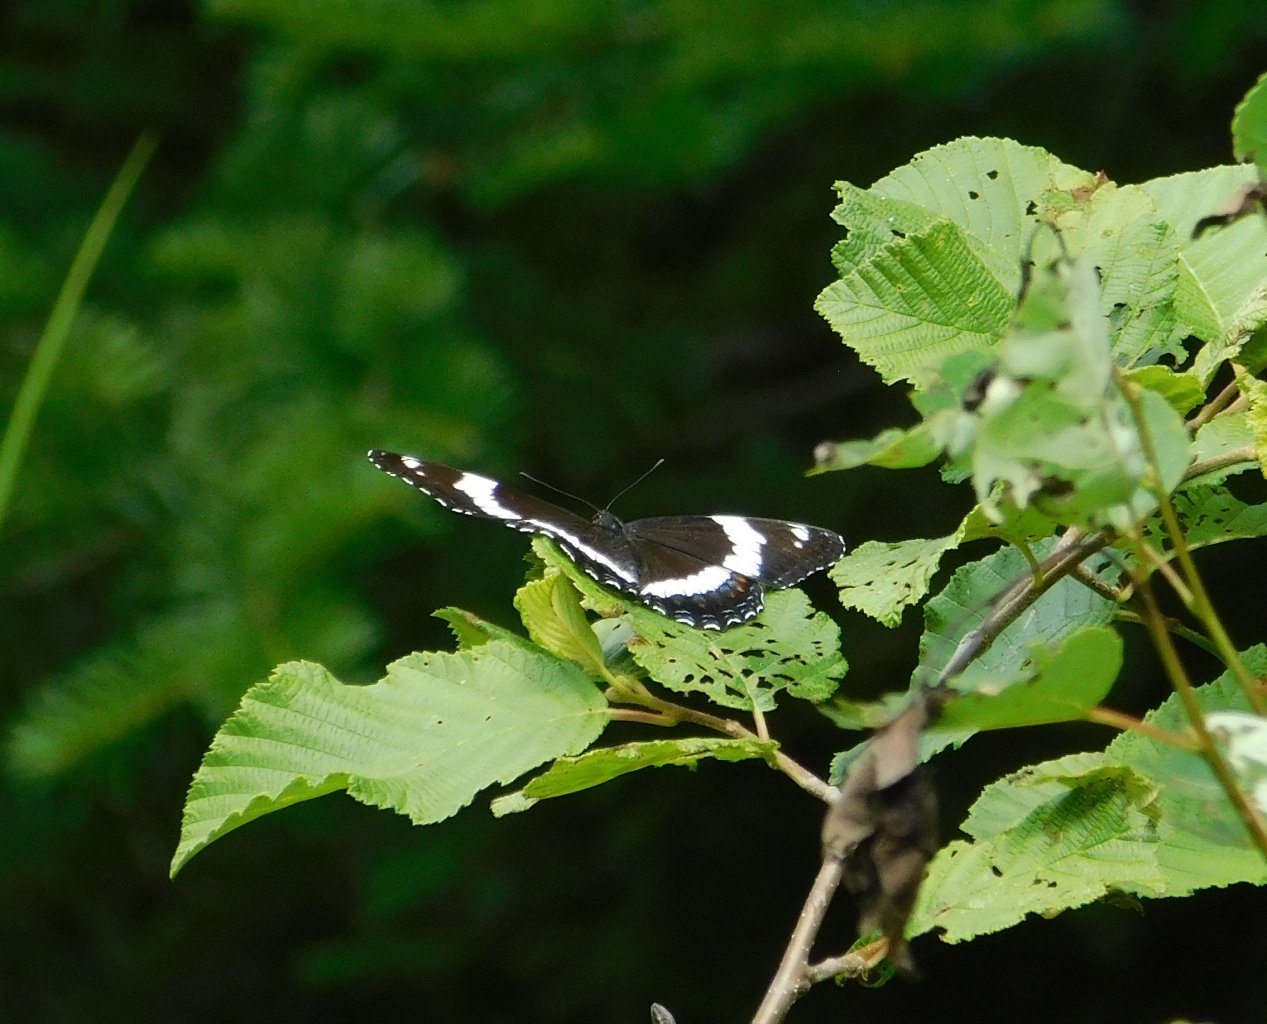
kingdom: Animalia
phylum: Arthropoda
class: Insecta
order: Lepidoptera
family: Nymphalidae
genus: Limenitis
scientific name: Limenitis arthemis
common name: Red-spotted Admiral
